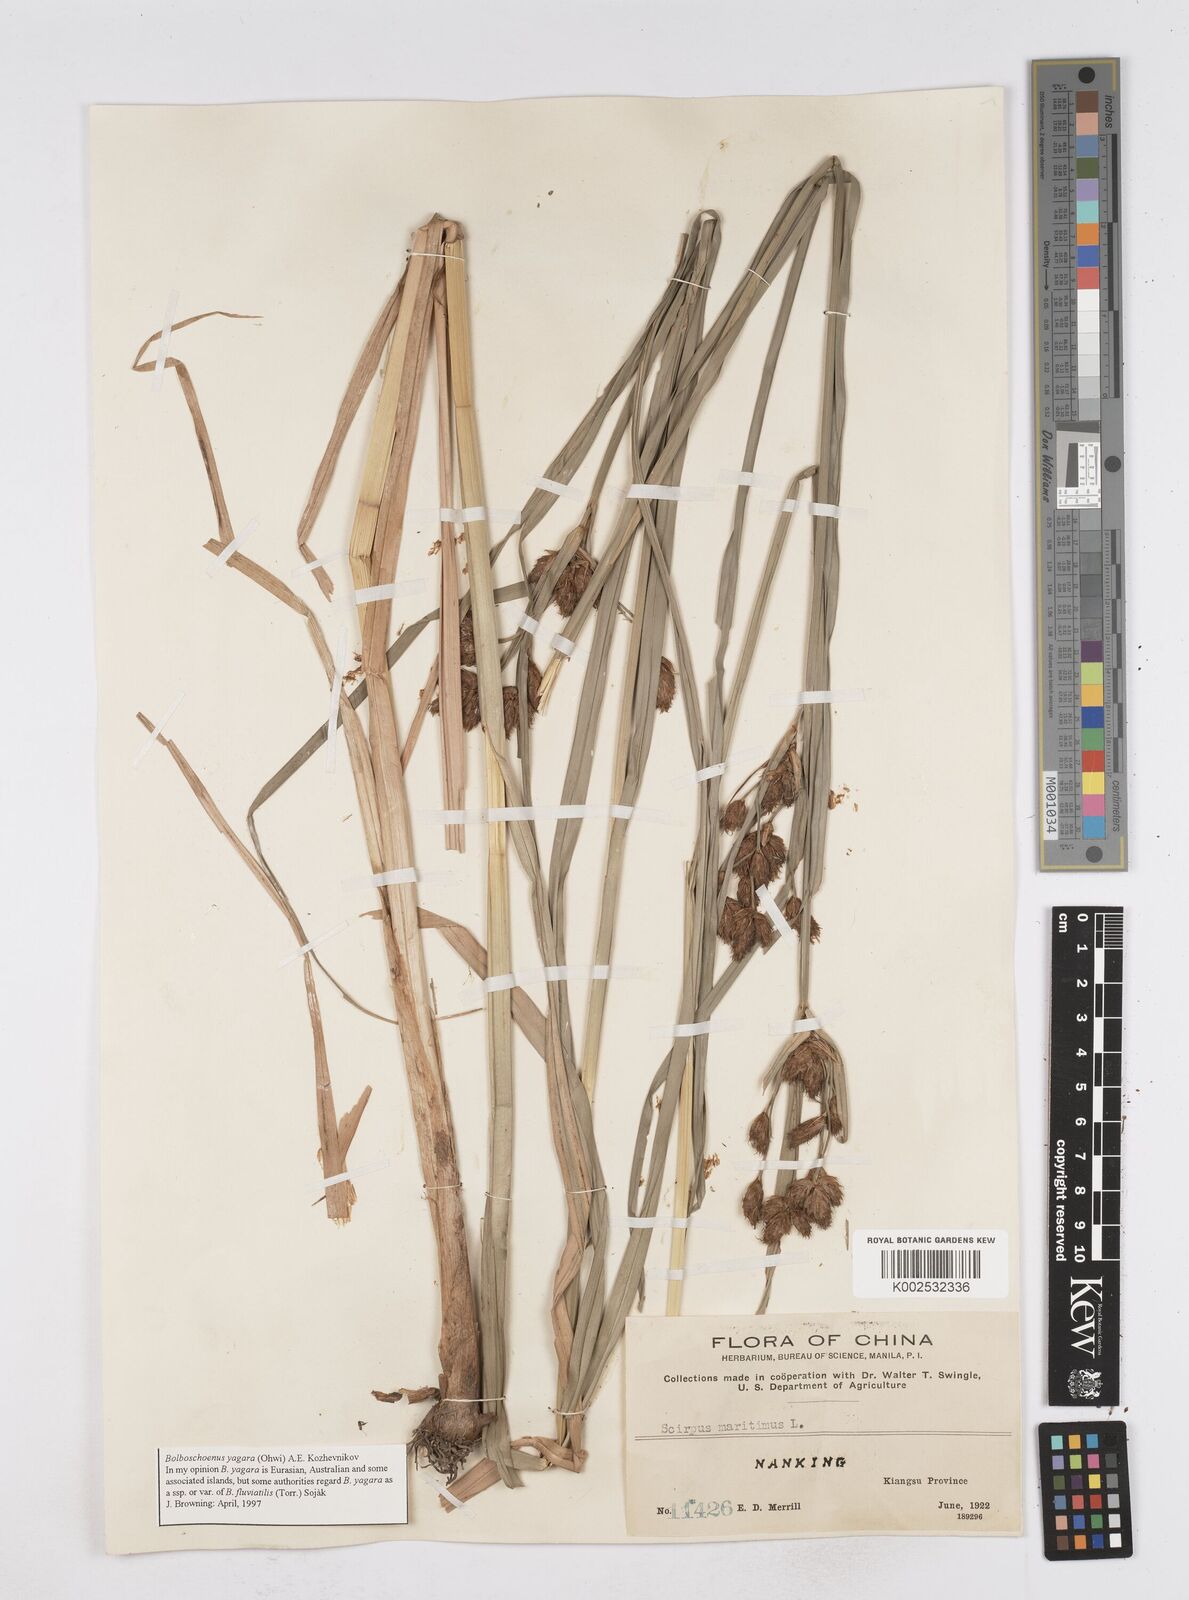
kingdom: Plantae
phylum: Tracheophyta
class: Liliopsida
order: Poales
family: Cyperaceae
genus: Bolboschoenus
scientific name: Bolboschoenus maritimus
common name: Sea club-rush
